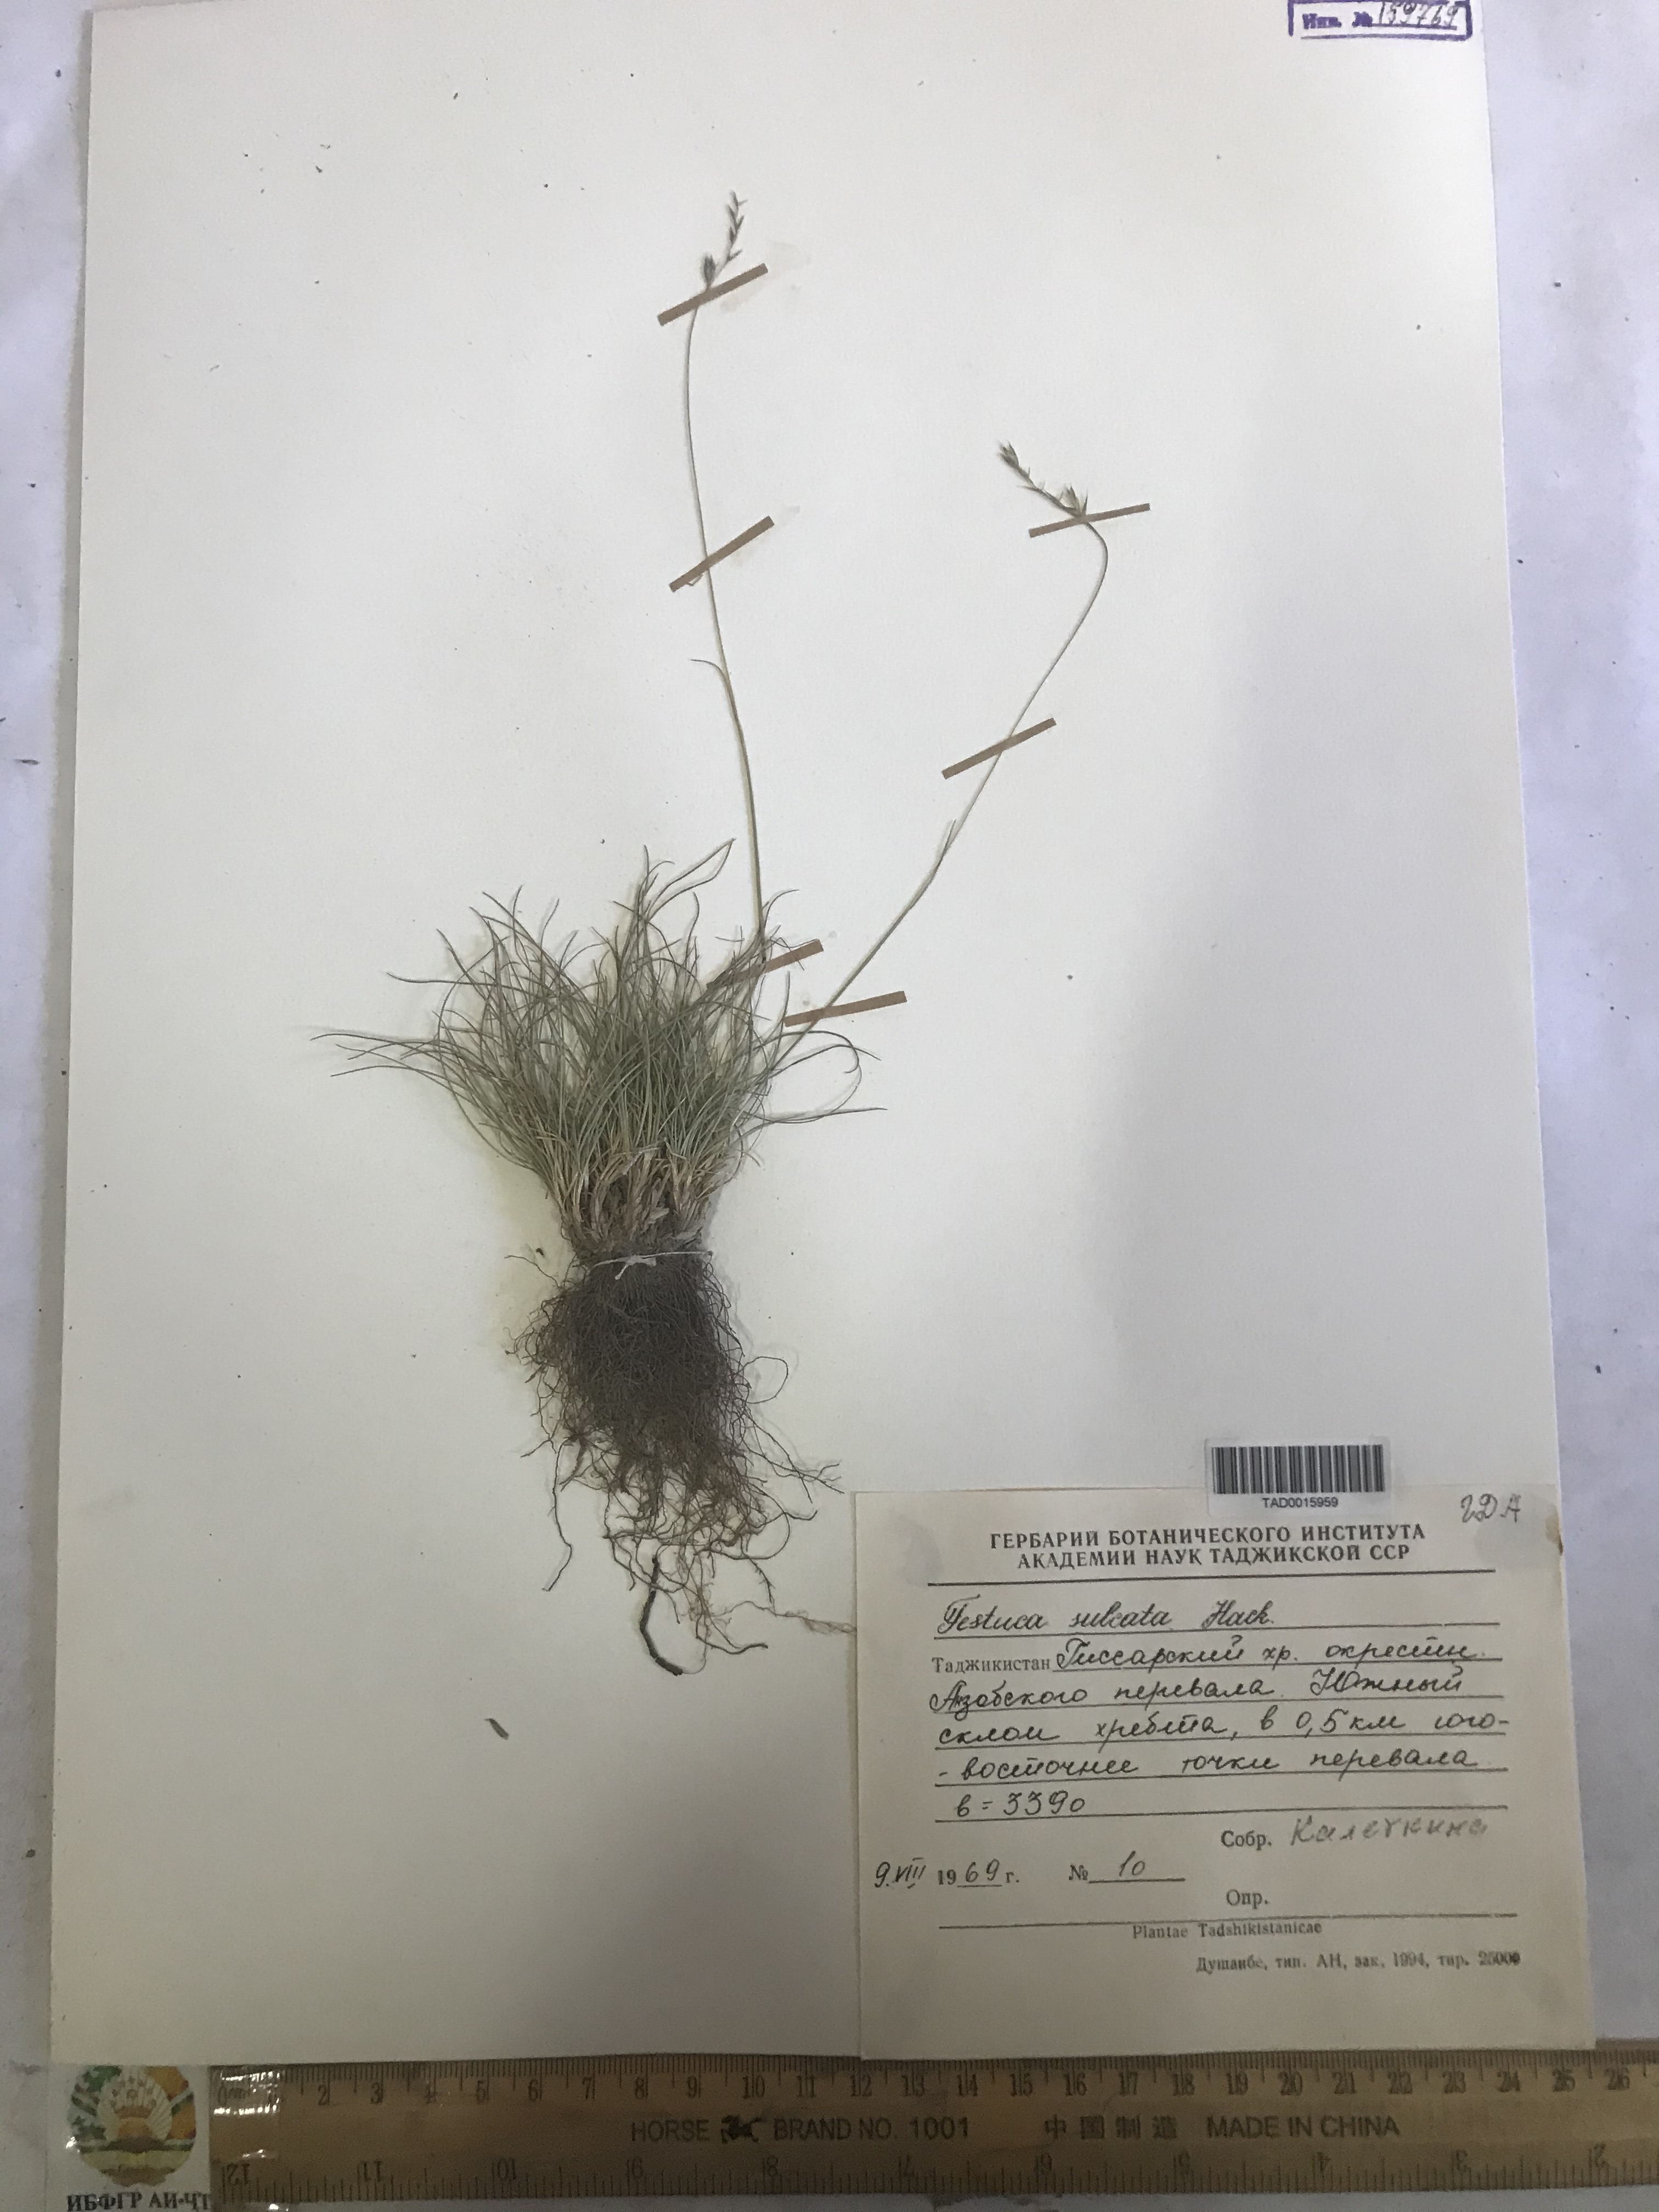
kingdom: Plantae
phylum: Tracheophyta
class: Liliopsida
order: Poales
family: Poaceae
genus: Festuca
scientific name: Festuca sulcata
